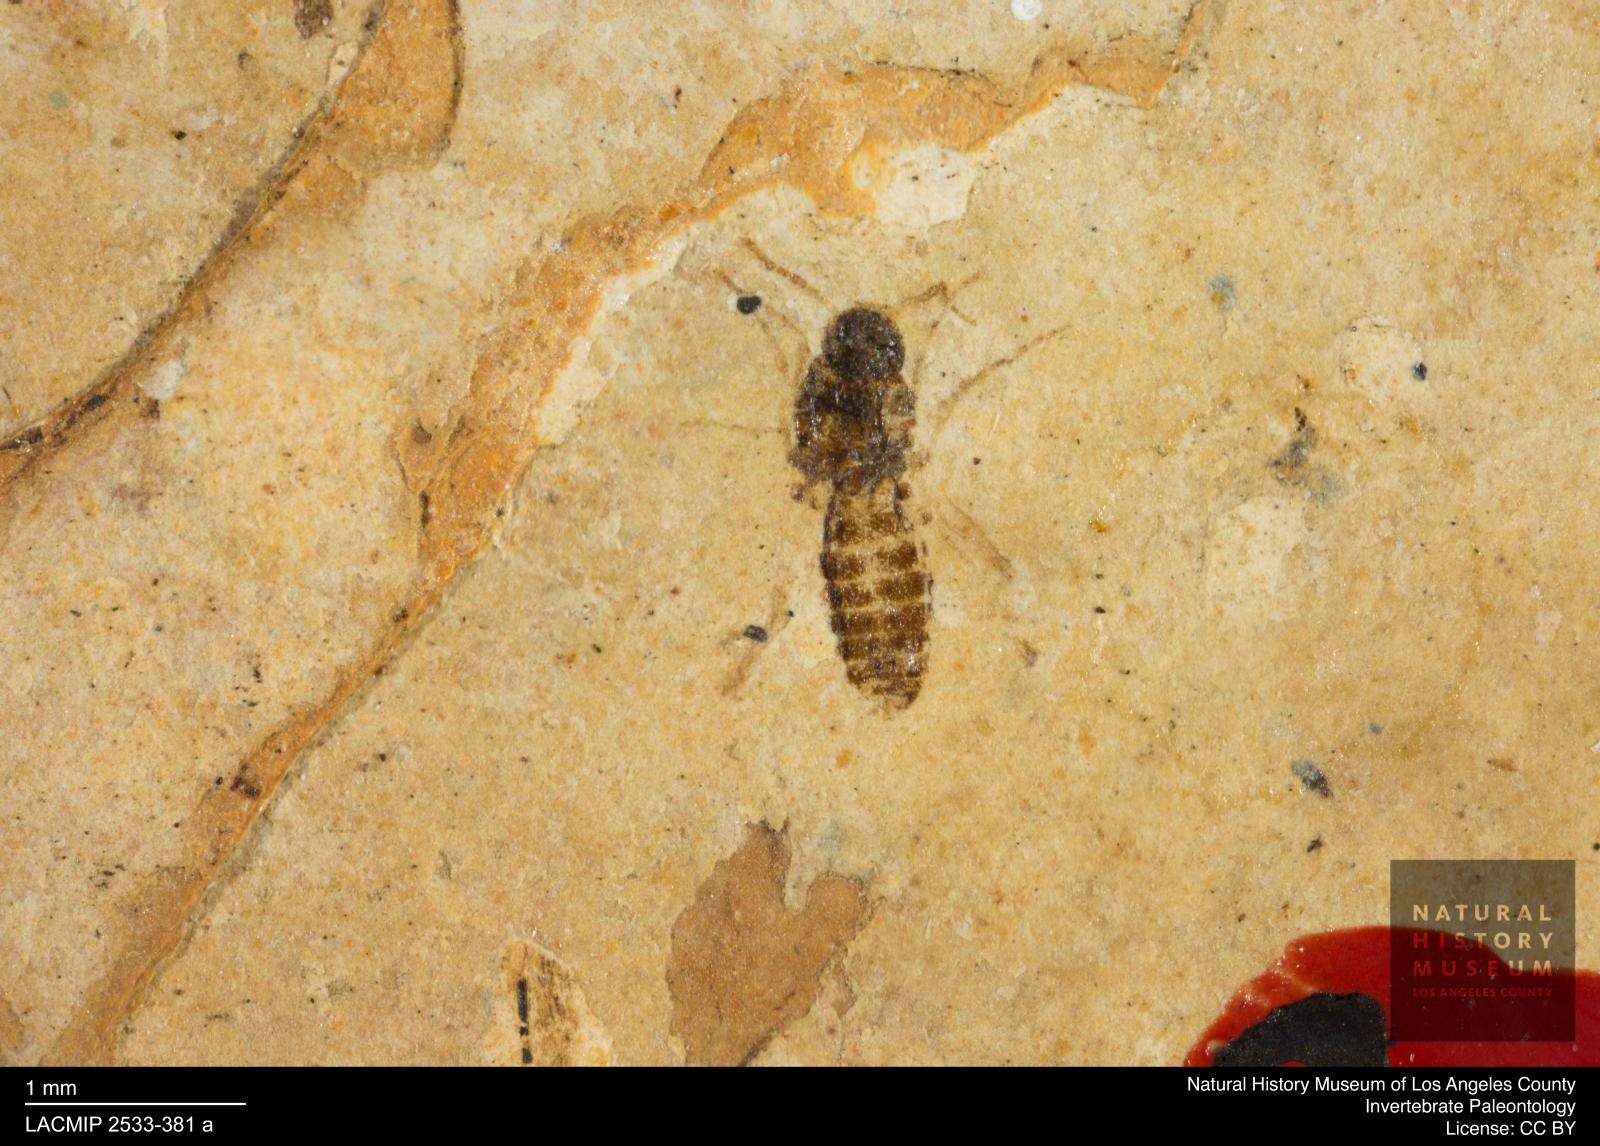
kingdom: Animalia
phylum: Arthropoda
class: Insecta
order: Diptera
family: Ceratopogonidae
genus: Culicoides
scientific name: Culicoides liliputanus
